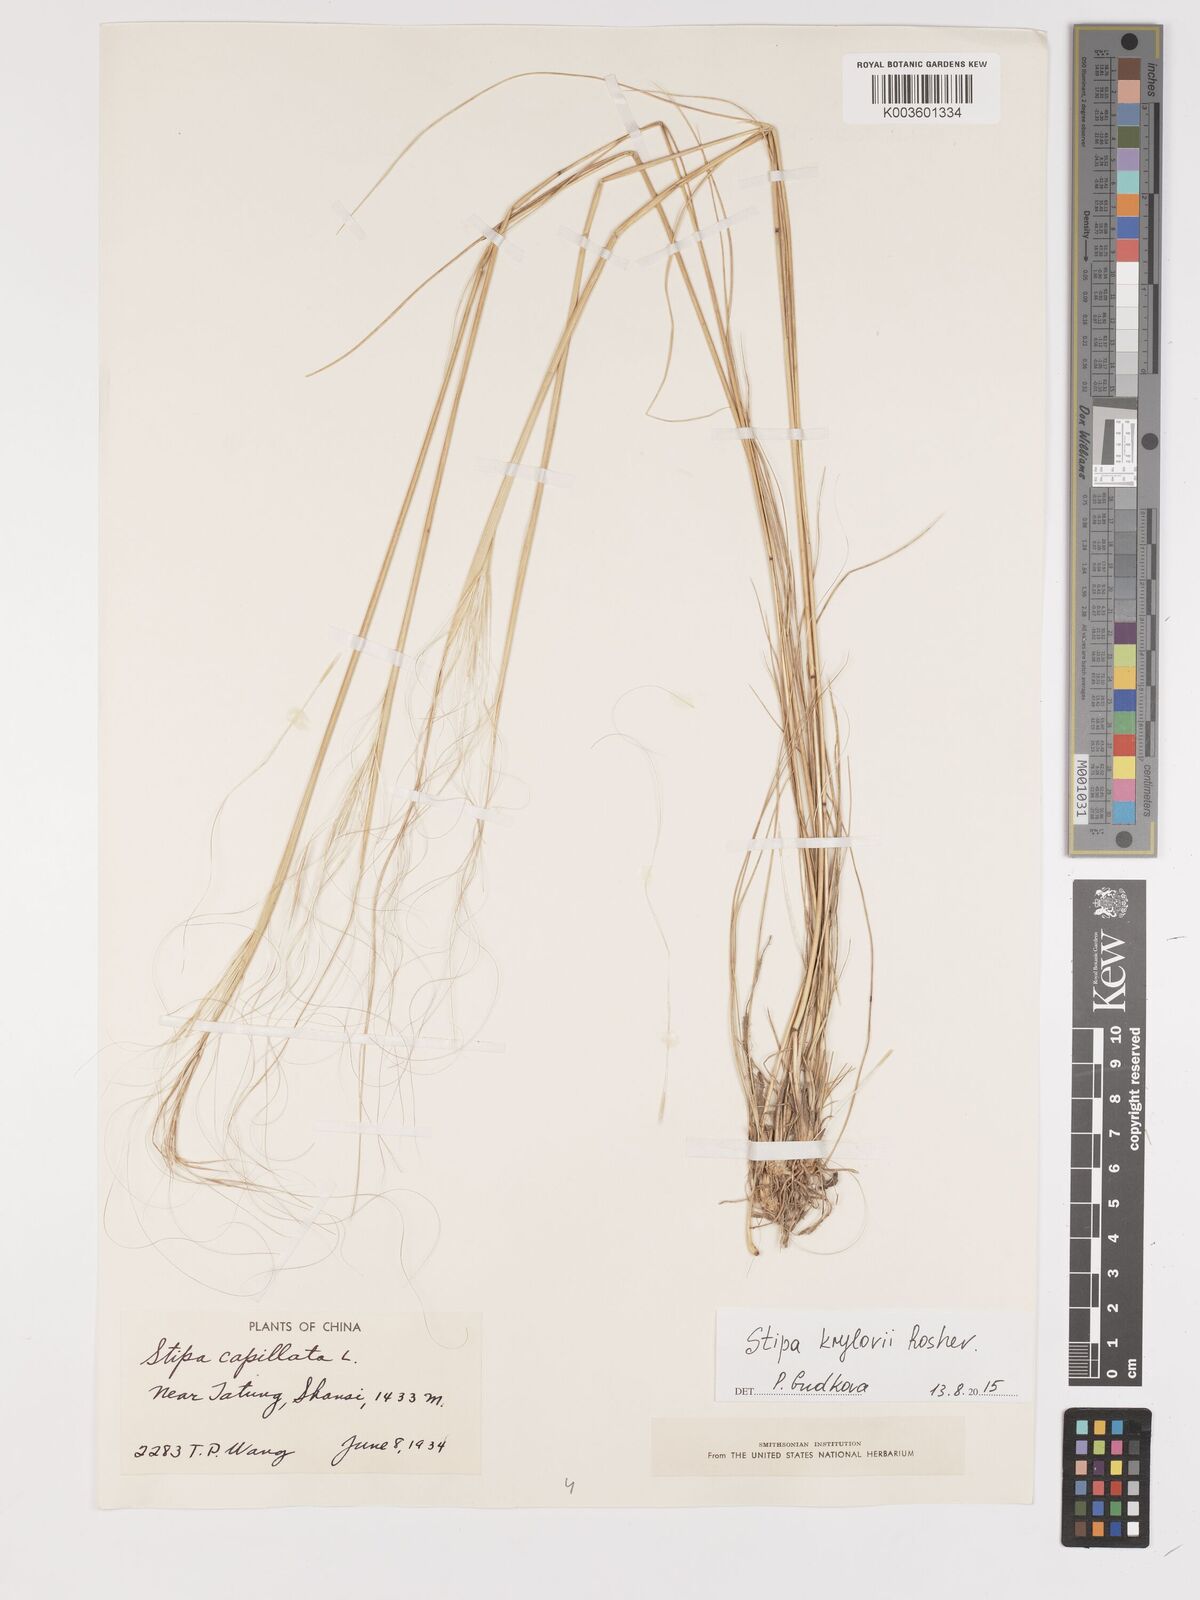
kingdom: Plantae
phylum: Tracheophyta
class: Liliopsida
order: Poales
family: Poaceae
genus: Stipa
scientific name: Stipa krylovii
